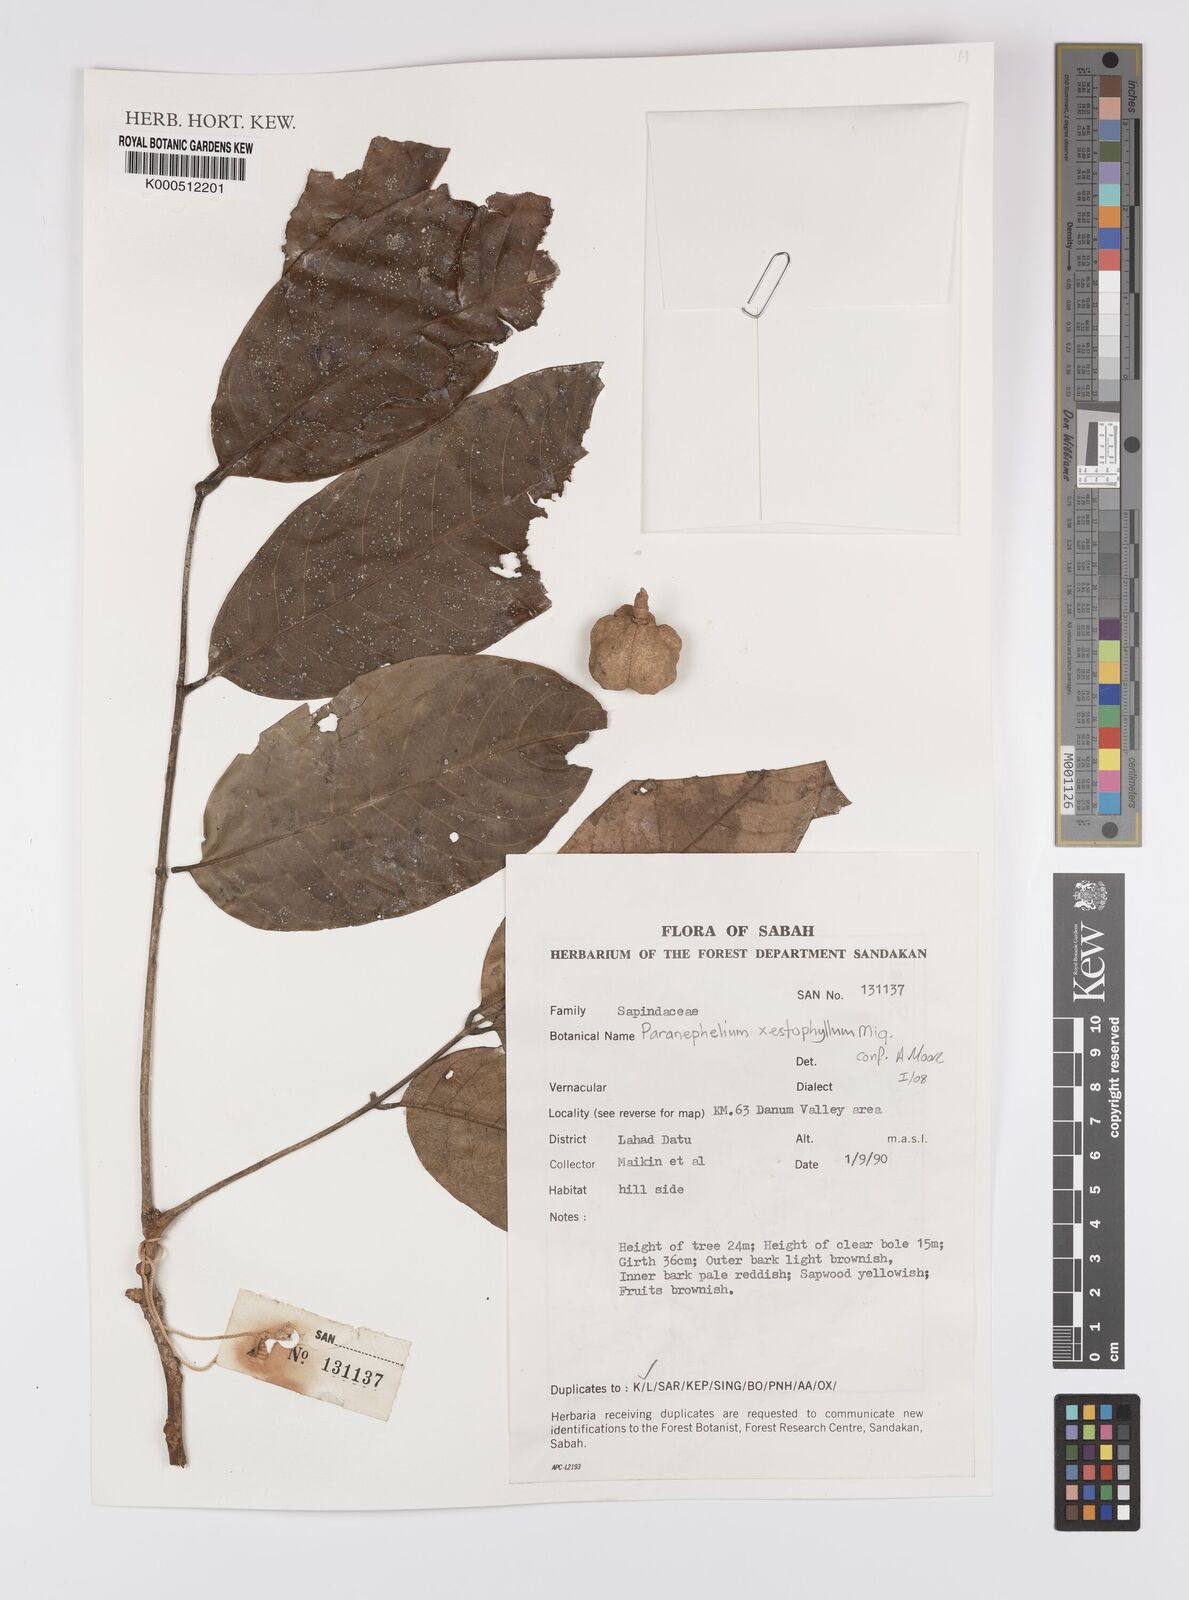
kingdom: Plantae
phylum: Tracheophyta
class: Magnoliopsida
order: Sapindales
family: Sapindaceae
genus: Dodonaea
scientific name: Dodonaea
